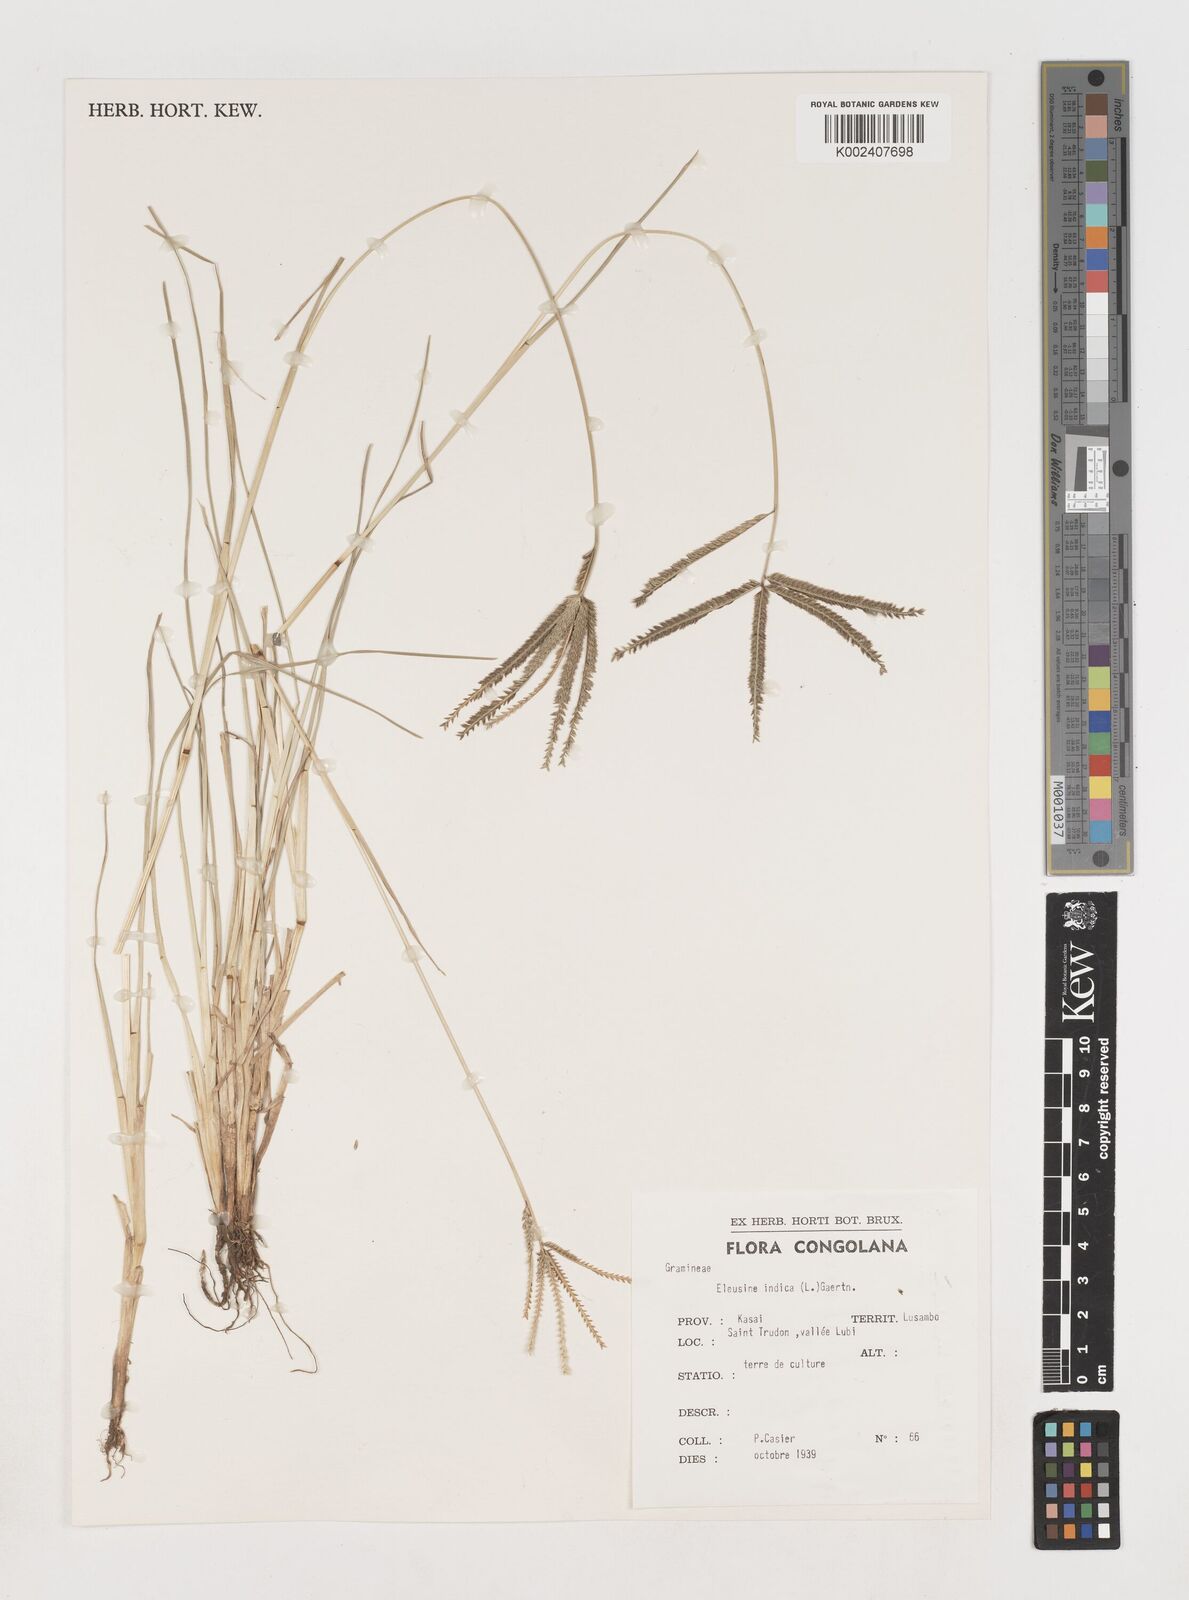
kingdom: Plantae
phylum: Tracheophyta
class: Liliopsida
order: Poales
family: Poaceae
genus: Eleusine
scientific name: Eleusine indica
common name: Yard-grass
